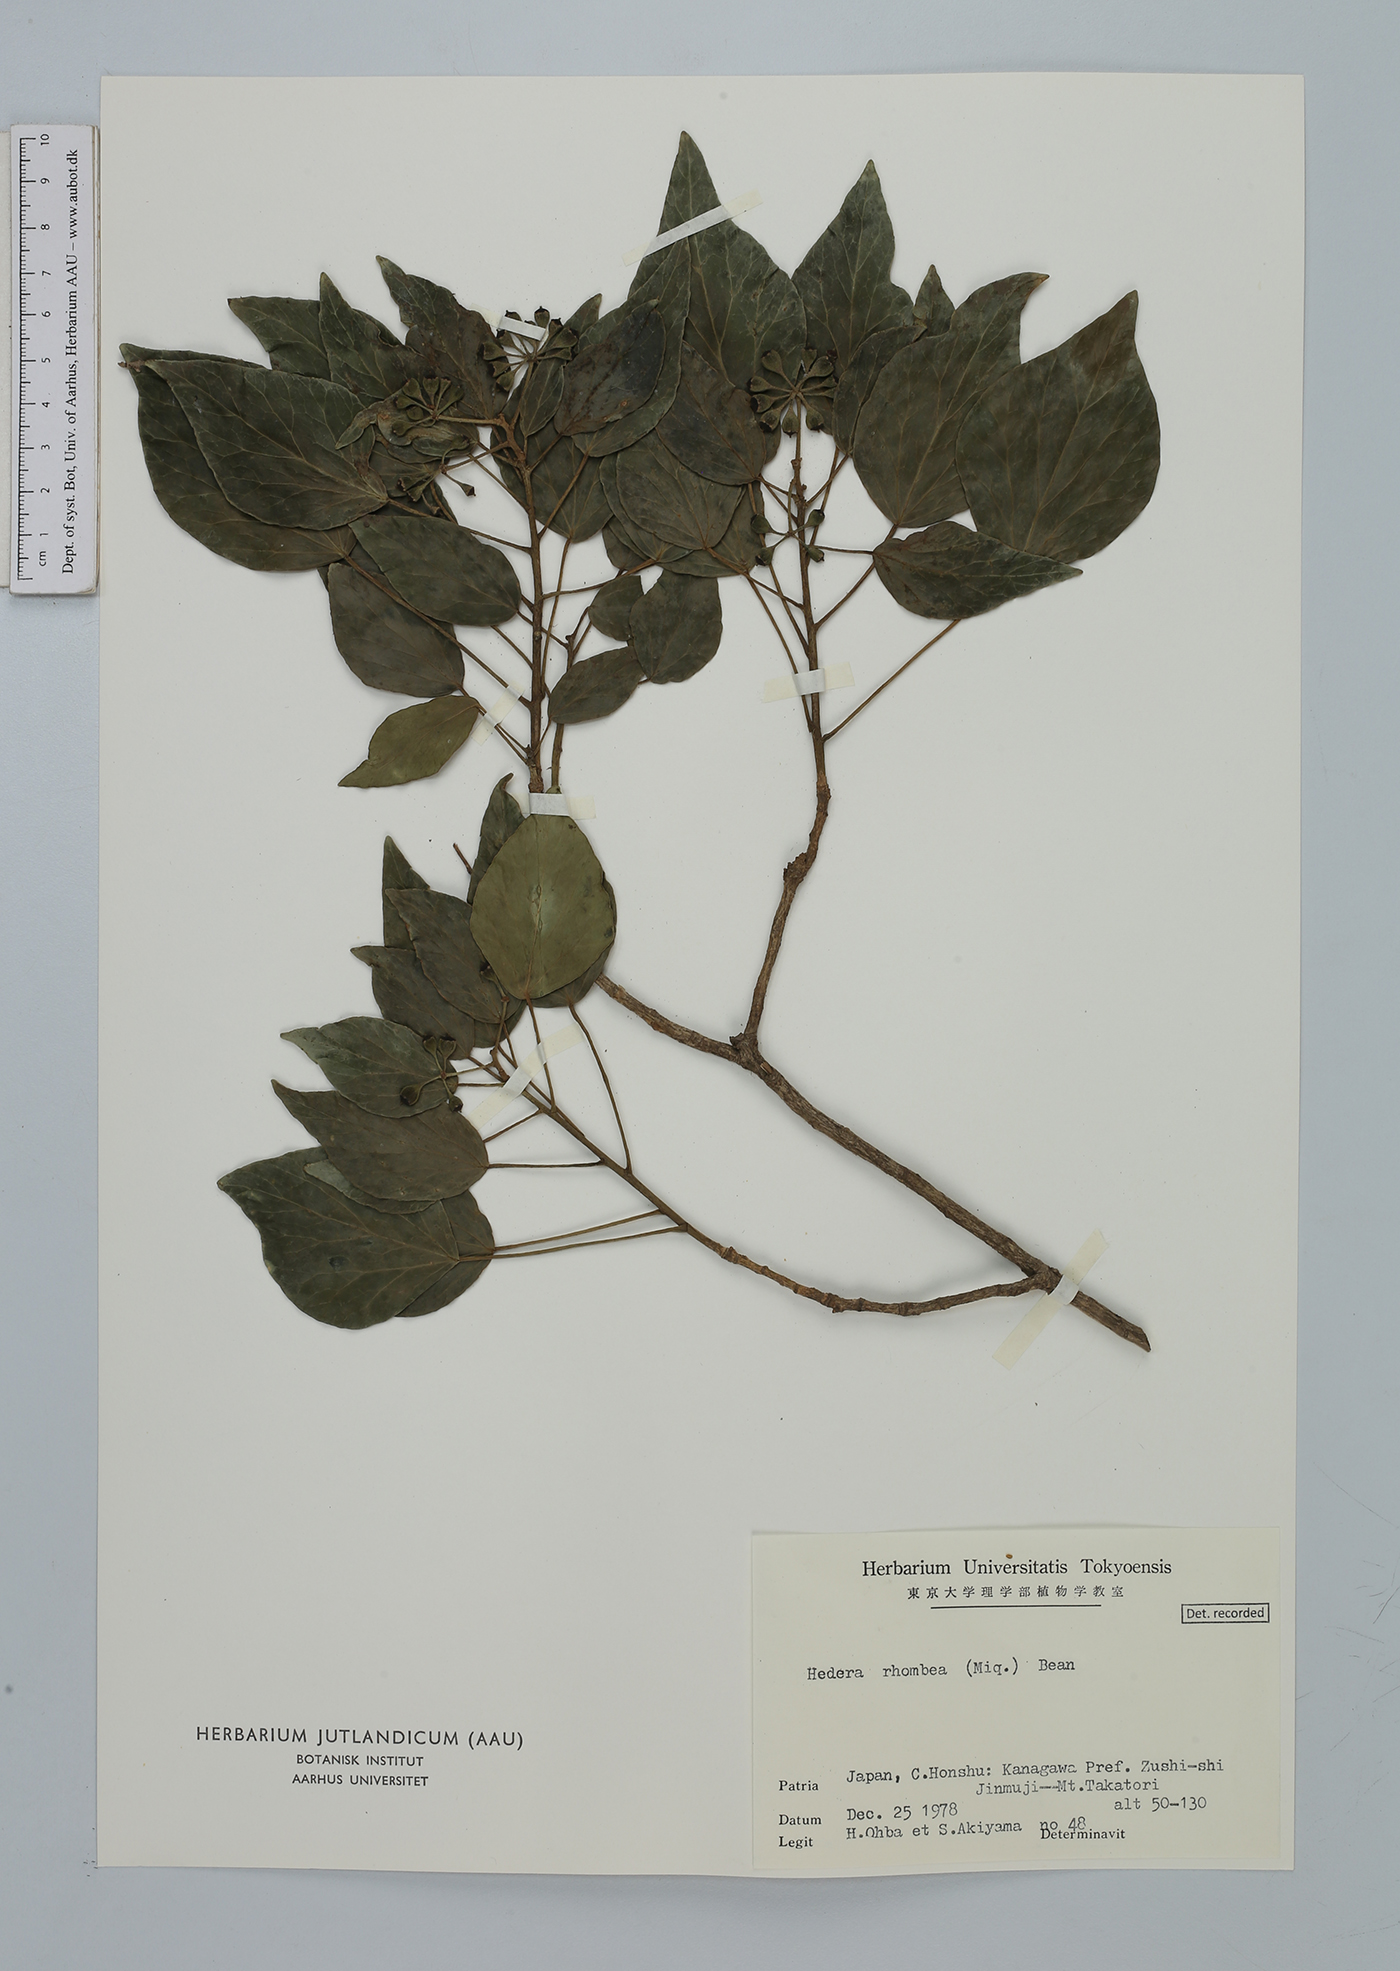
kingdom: Plantae
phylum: Tracheophyta
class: Magnoliopsida
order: Apiales
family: Araliaceae
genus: Hedera
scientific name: Hedera rhombea
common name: Japanese ivy
